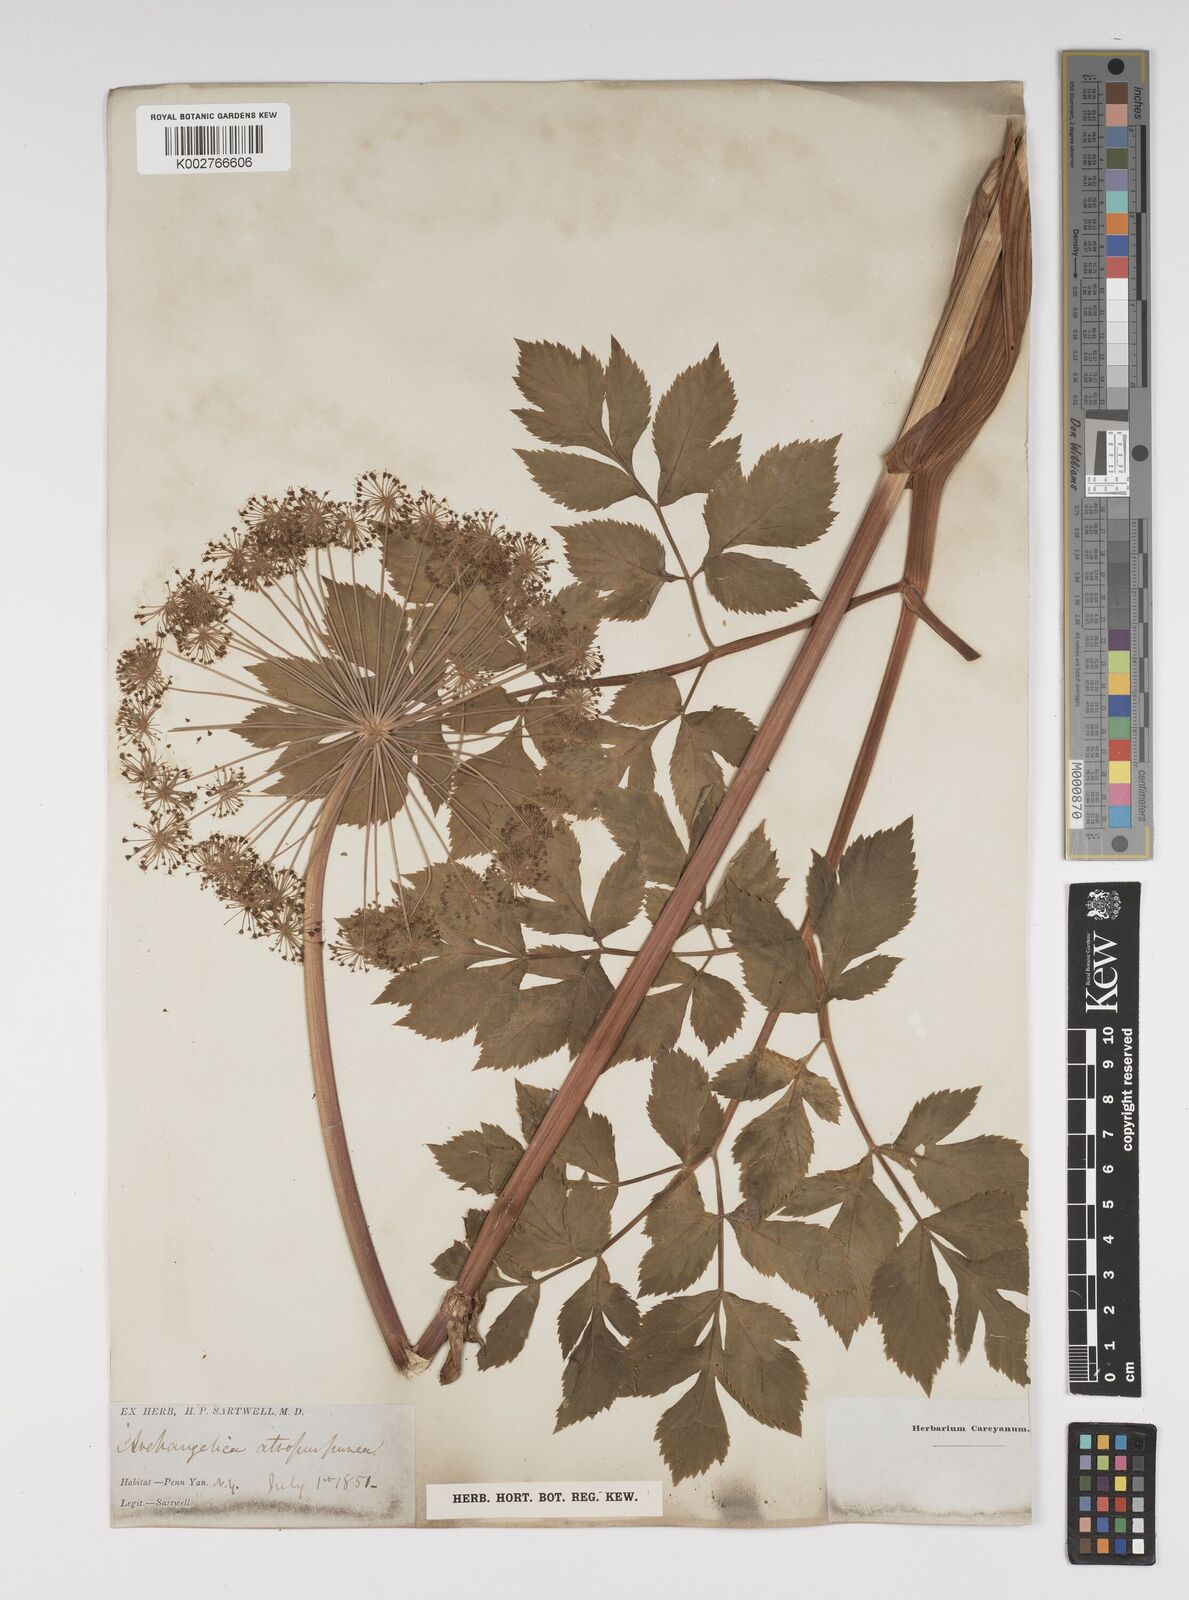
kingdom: Plantae
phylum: Tracheophyta
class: Magnoliopsida
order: Apiales
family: Apiaceae
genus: Angelica
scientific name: Angelica atropurpurea
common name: Great angelica
